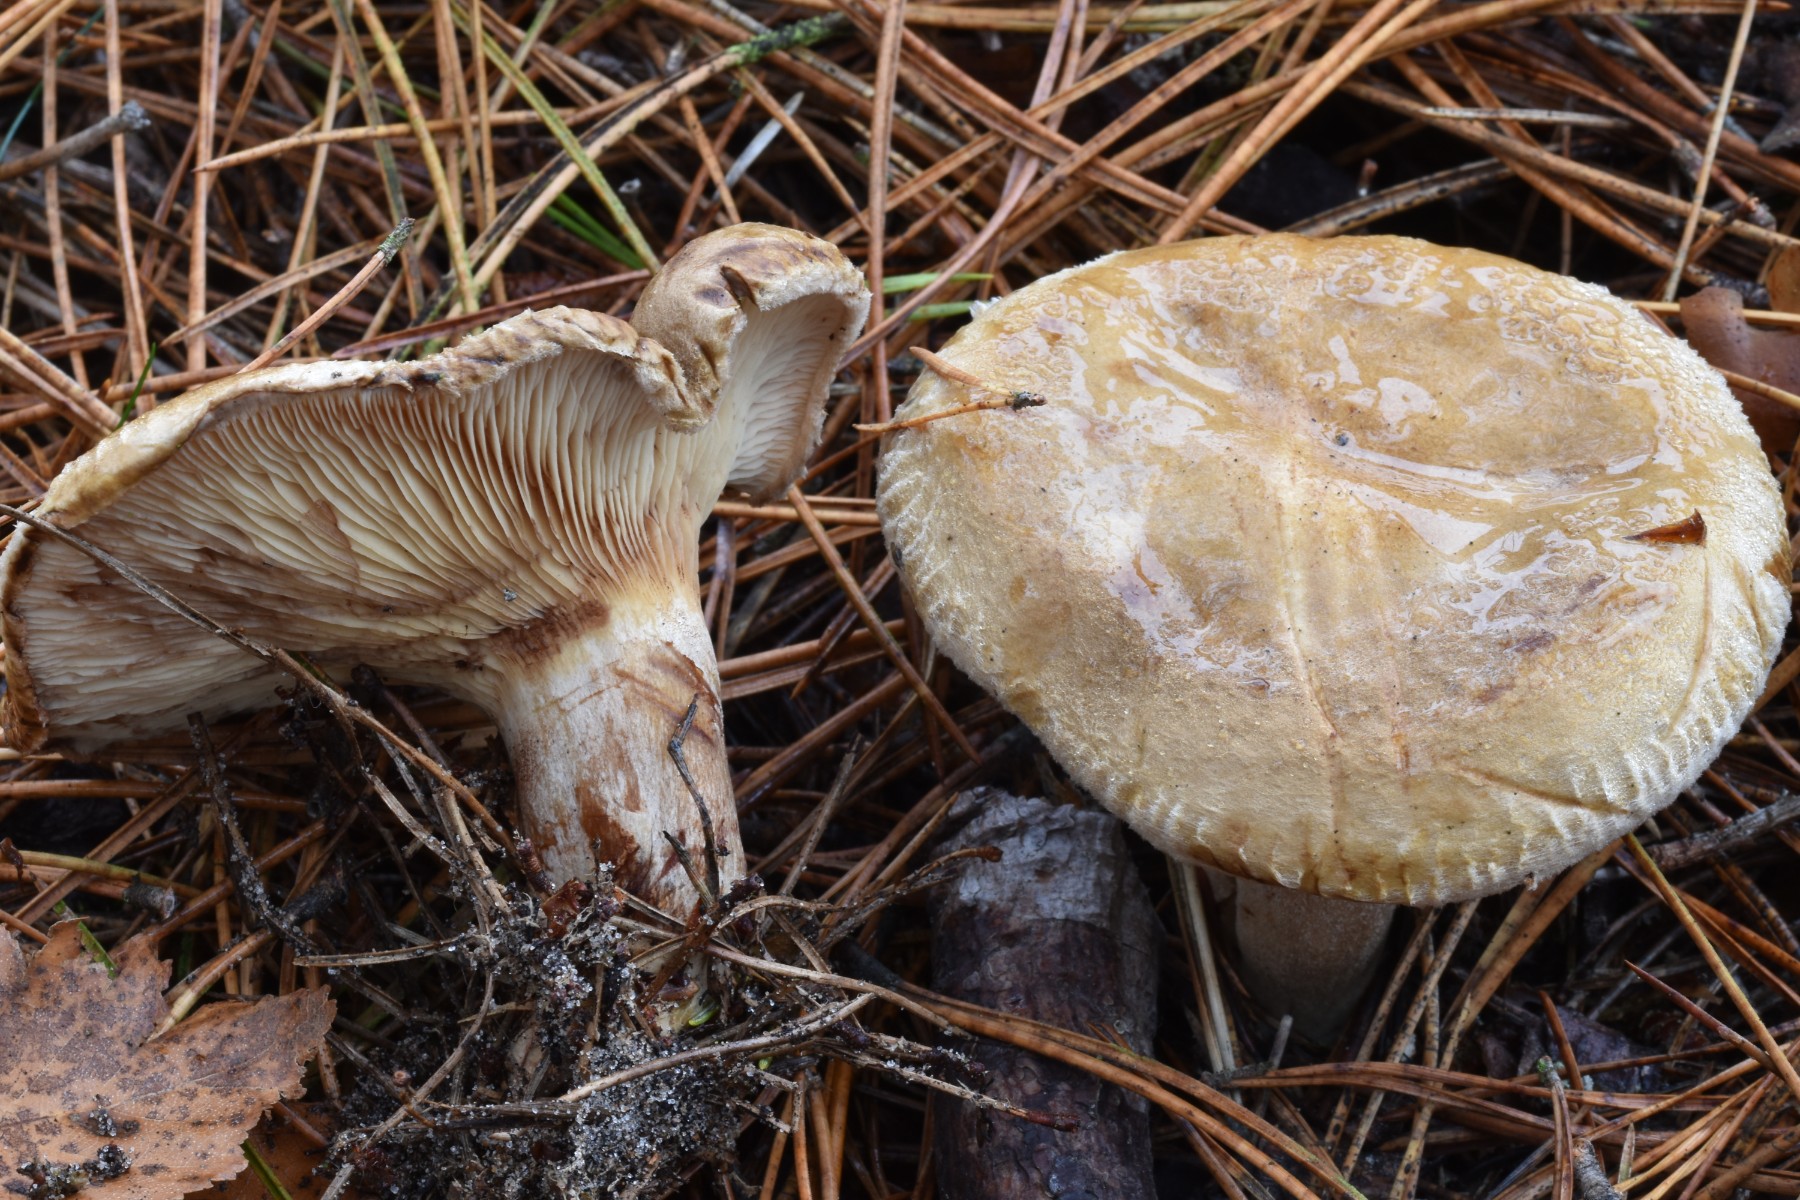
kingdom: Fungi
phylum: Basidiomycota
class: Agaricomycetes
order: Boletales
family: Paxillaceae
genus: Paxillus
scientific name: Paxillus involutus
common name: almindelig netbladhat
